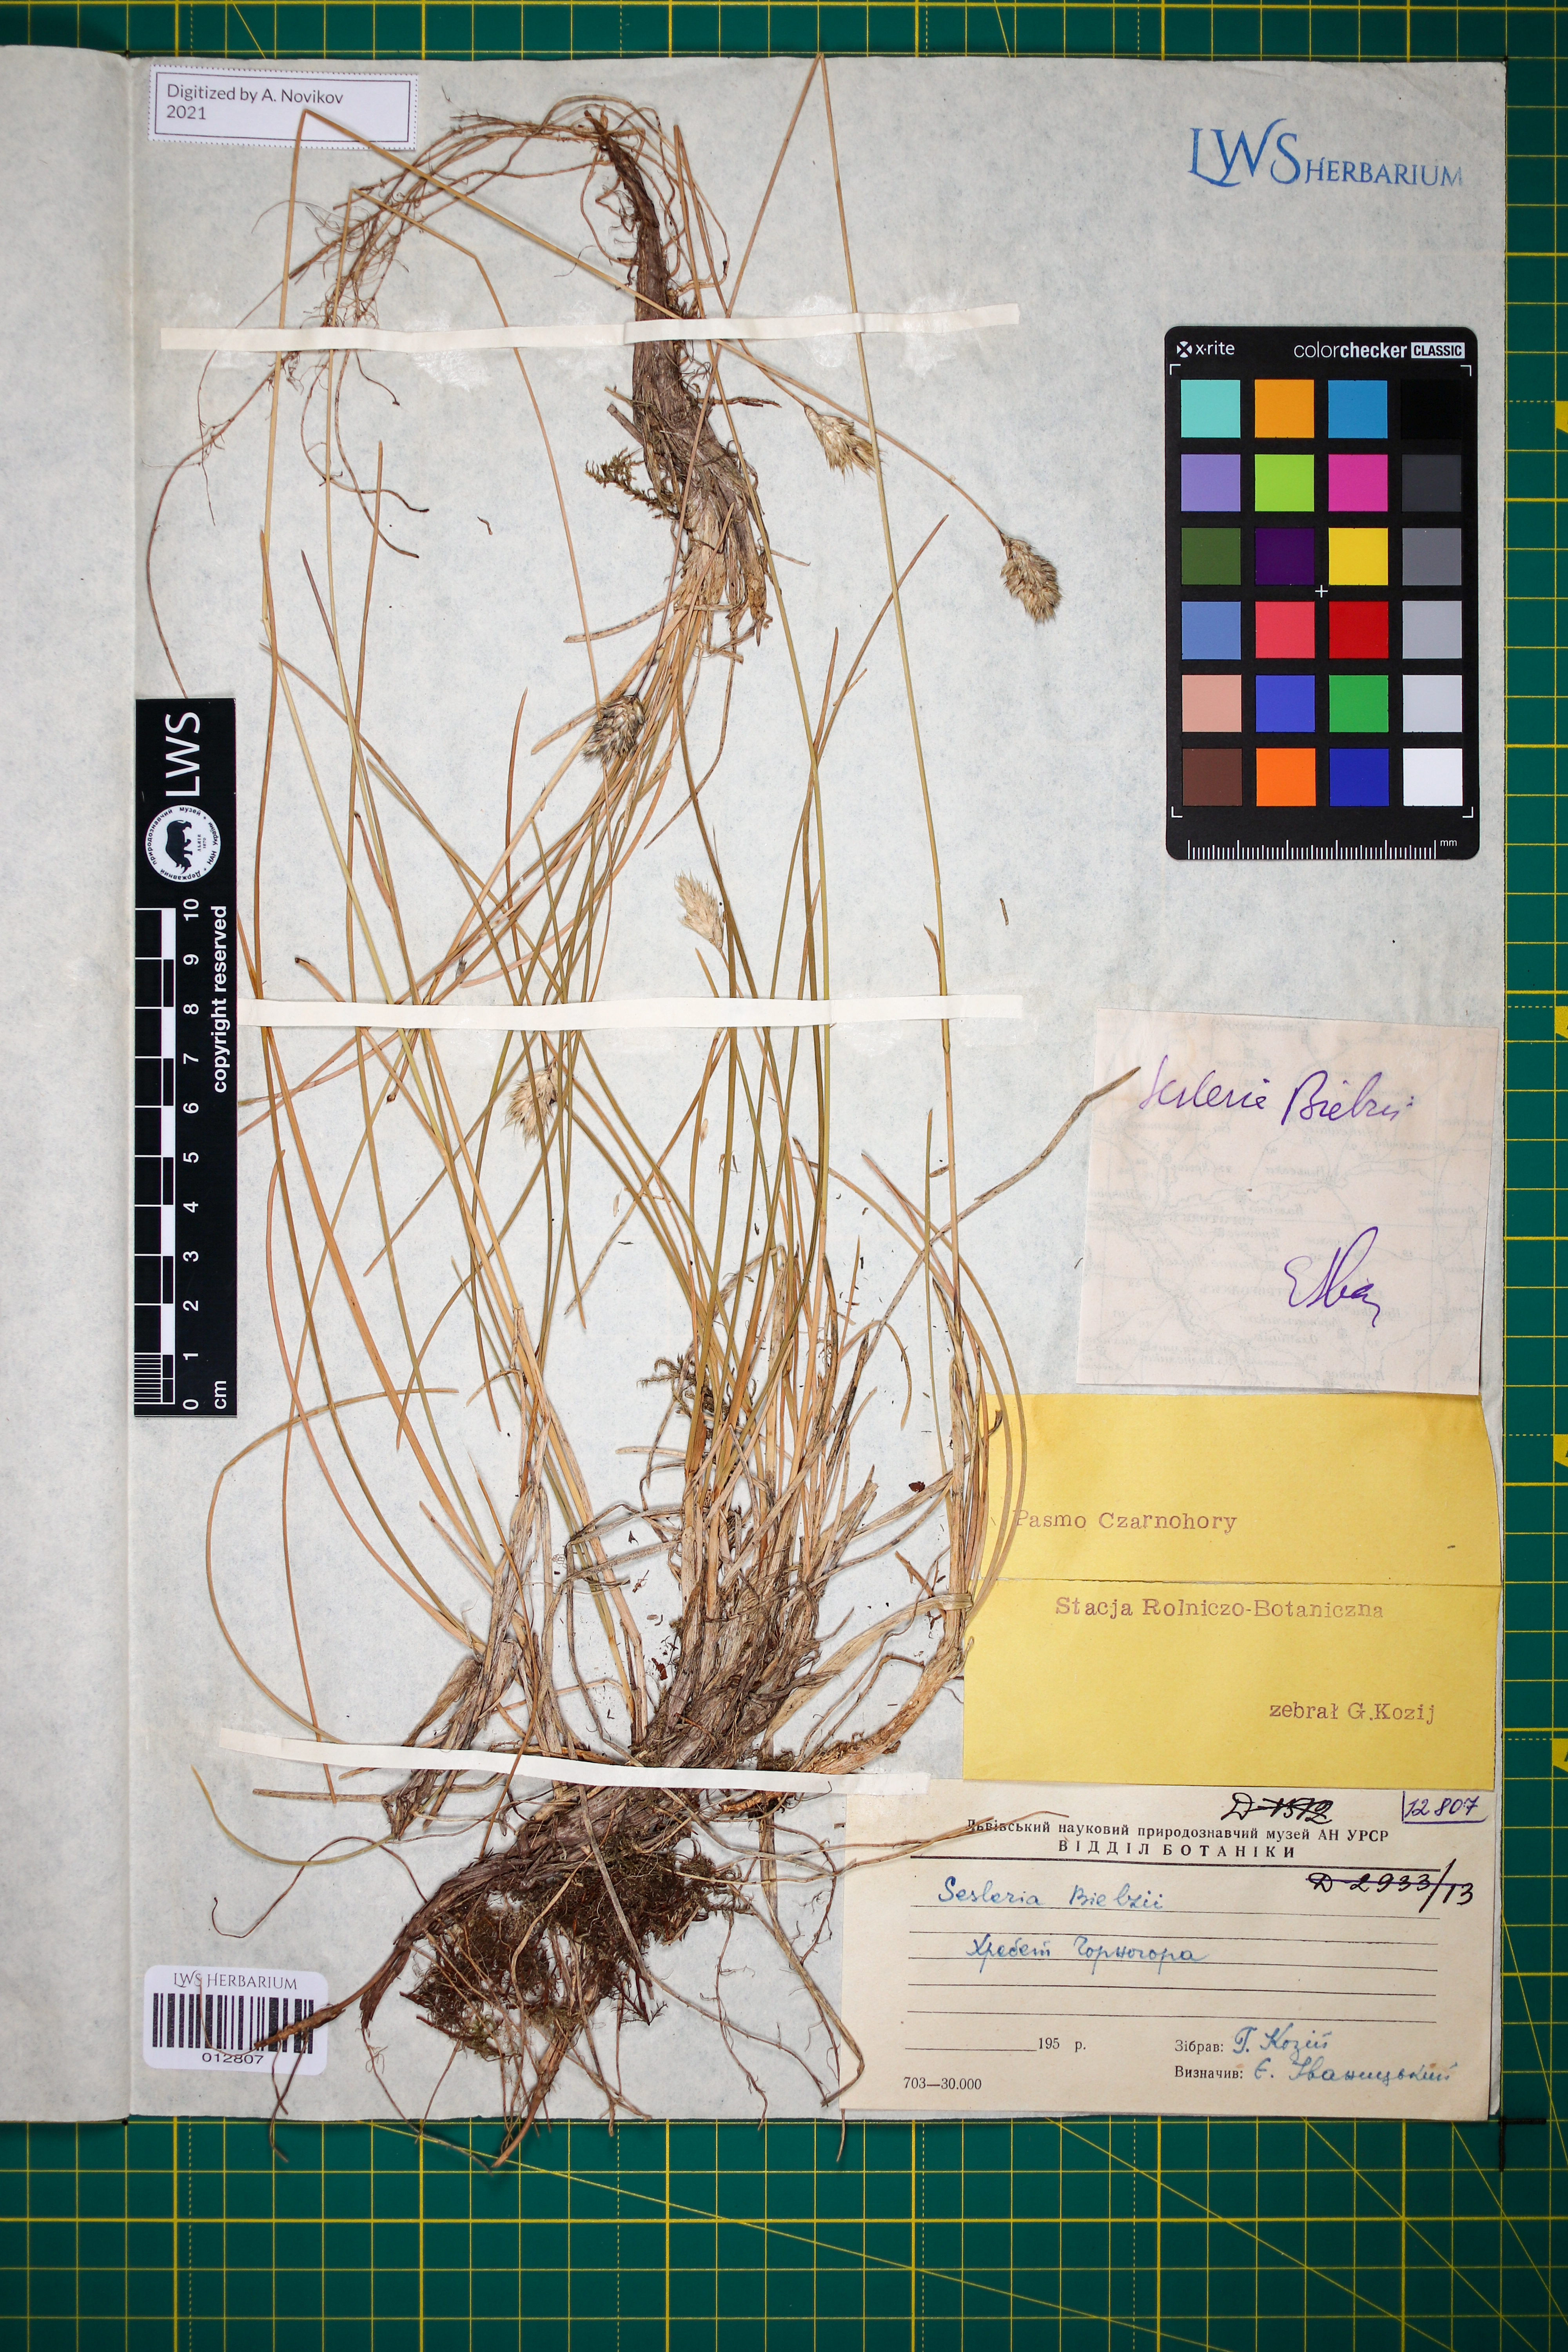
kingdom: Plantae
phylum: Tracheophyta
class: Liliopsida
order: Poales
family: Poaceae
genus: Sesleria
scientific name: Sesleria bielzii
